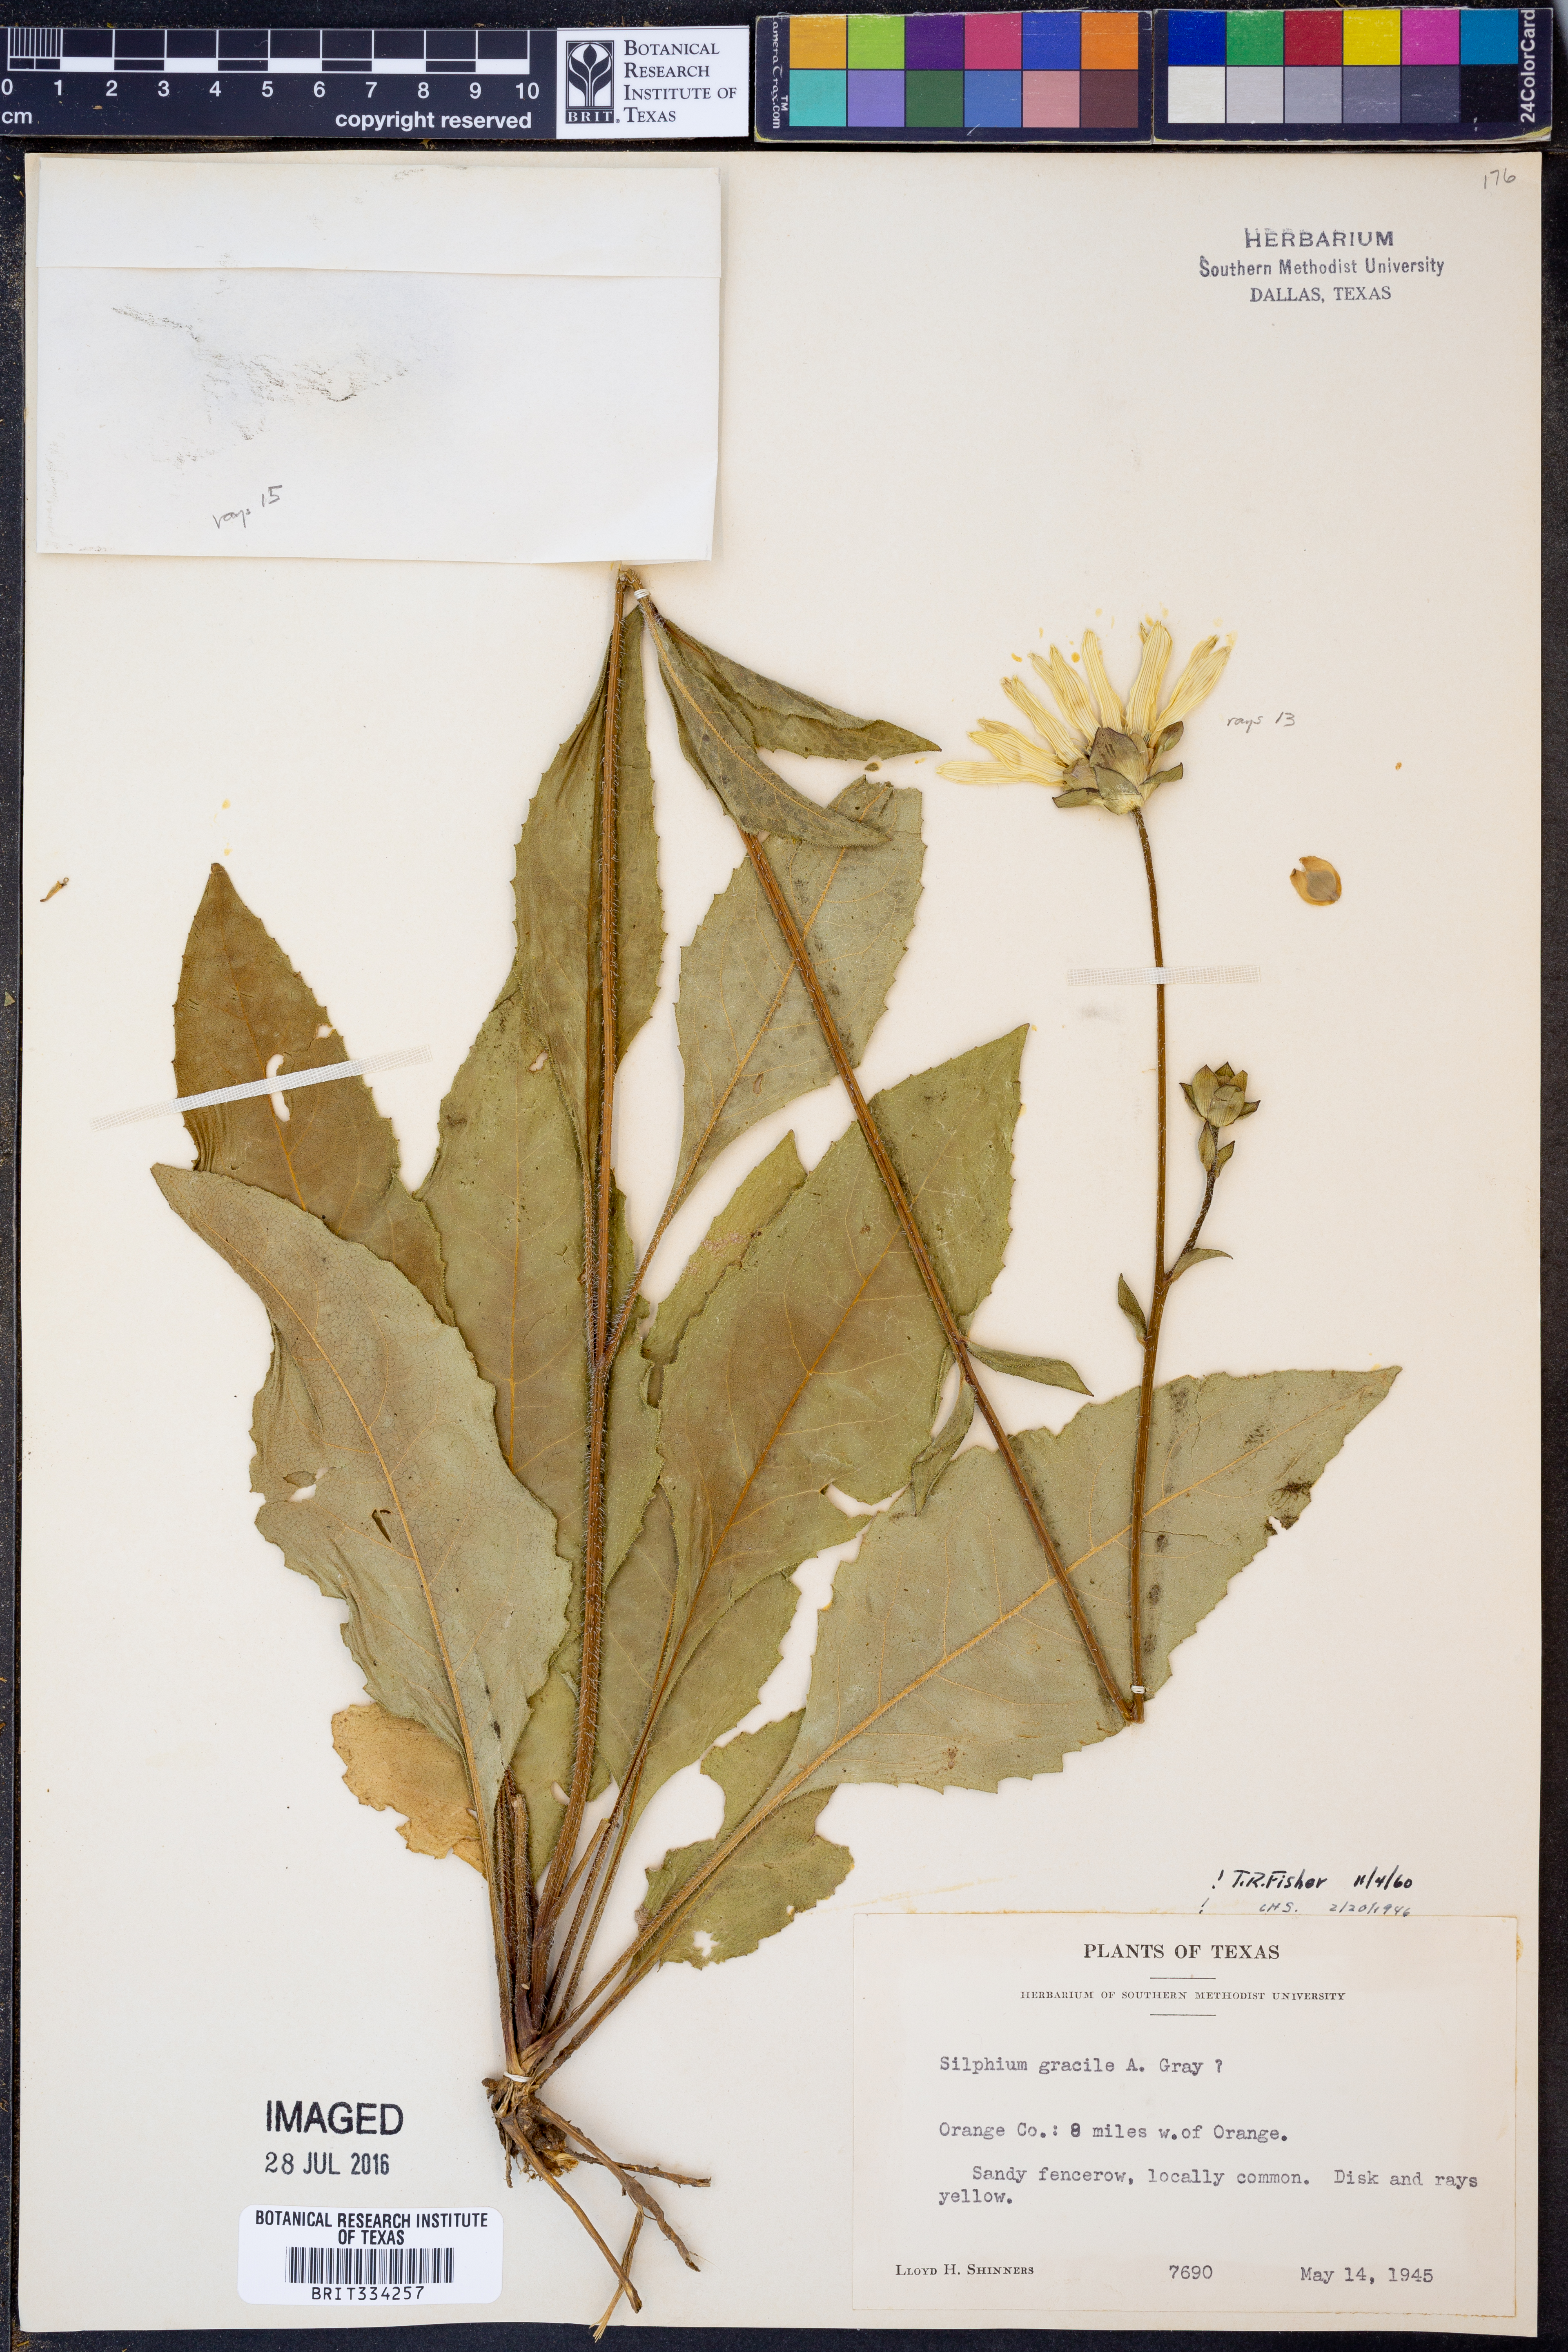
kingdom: Plantae
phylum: Tracheophyta
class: Magnoliopsida
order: Asterales
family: Asteraceae
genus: Silphium
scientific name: Silphium radula
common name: Roughleaf rosinweed
